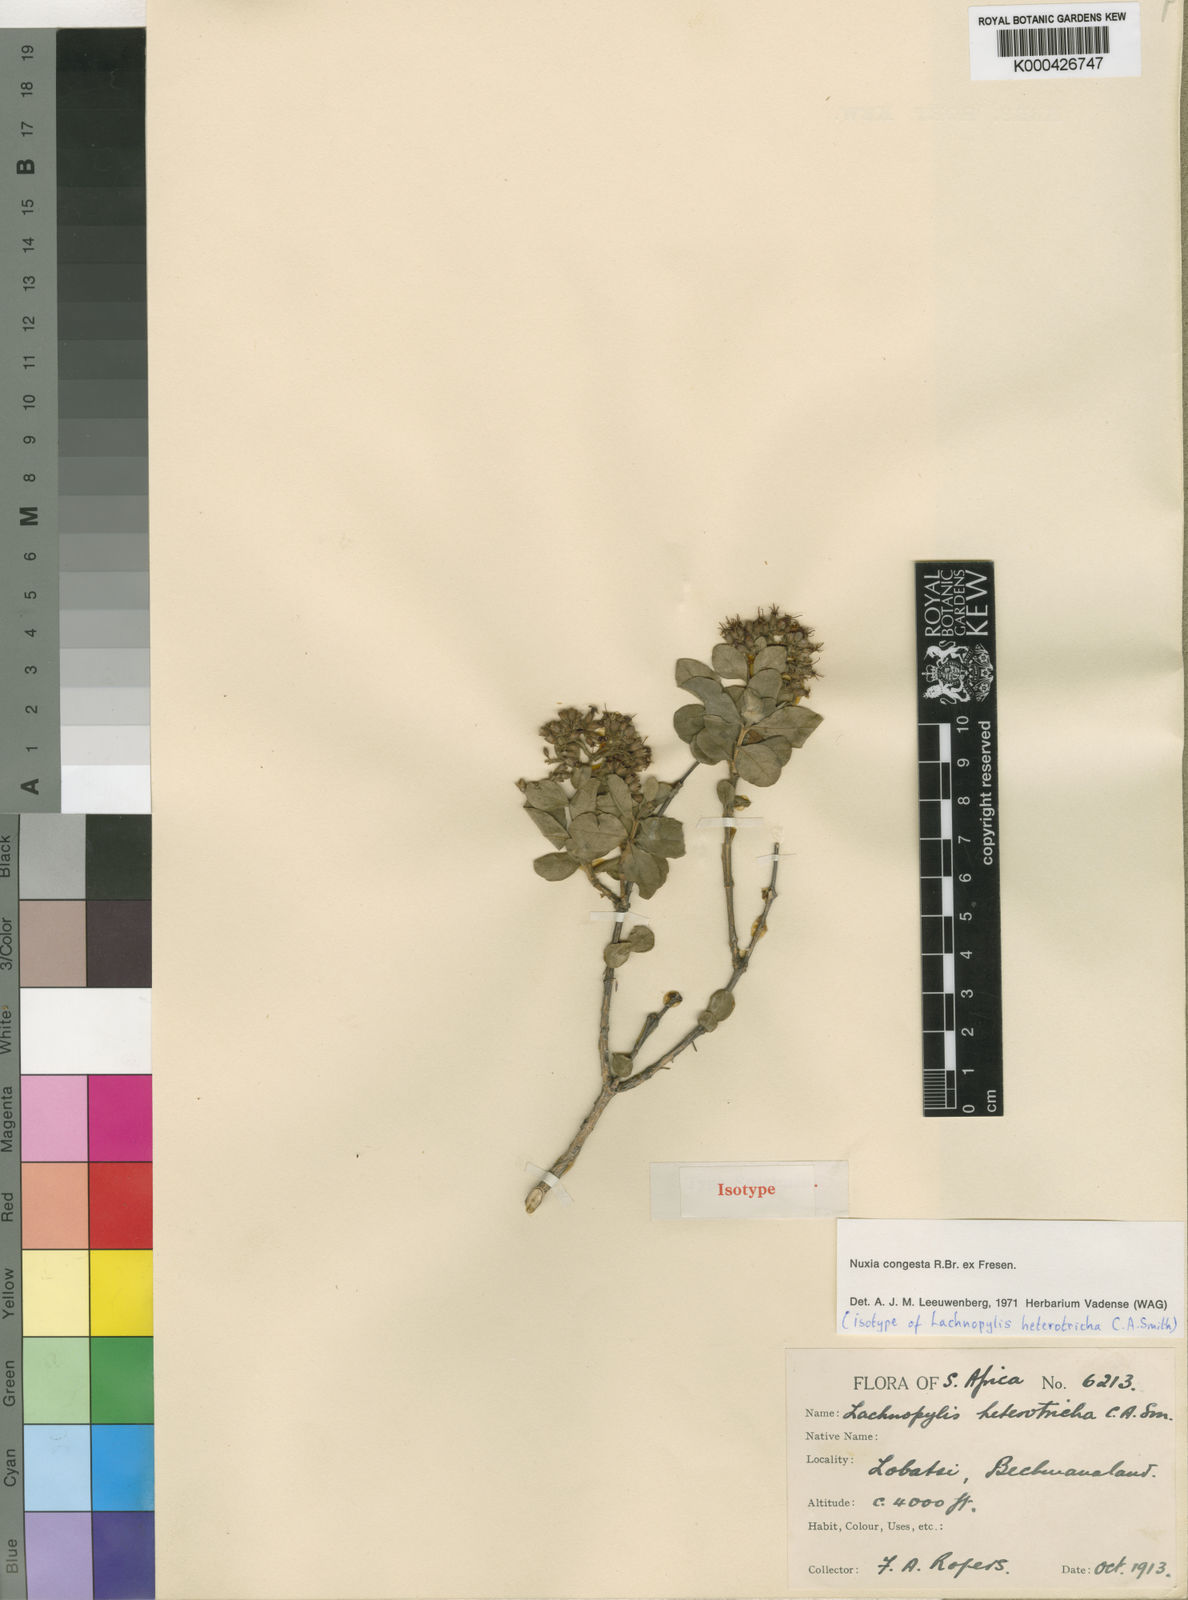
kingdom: Plantae
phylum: Tracheophyta
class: Magnoliopsida
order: Lamiales
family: Stilbaceae
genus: Nuxia
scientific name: Nuxia congesta
